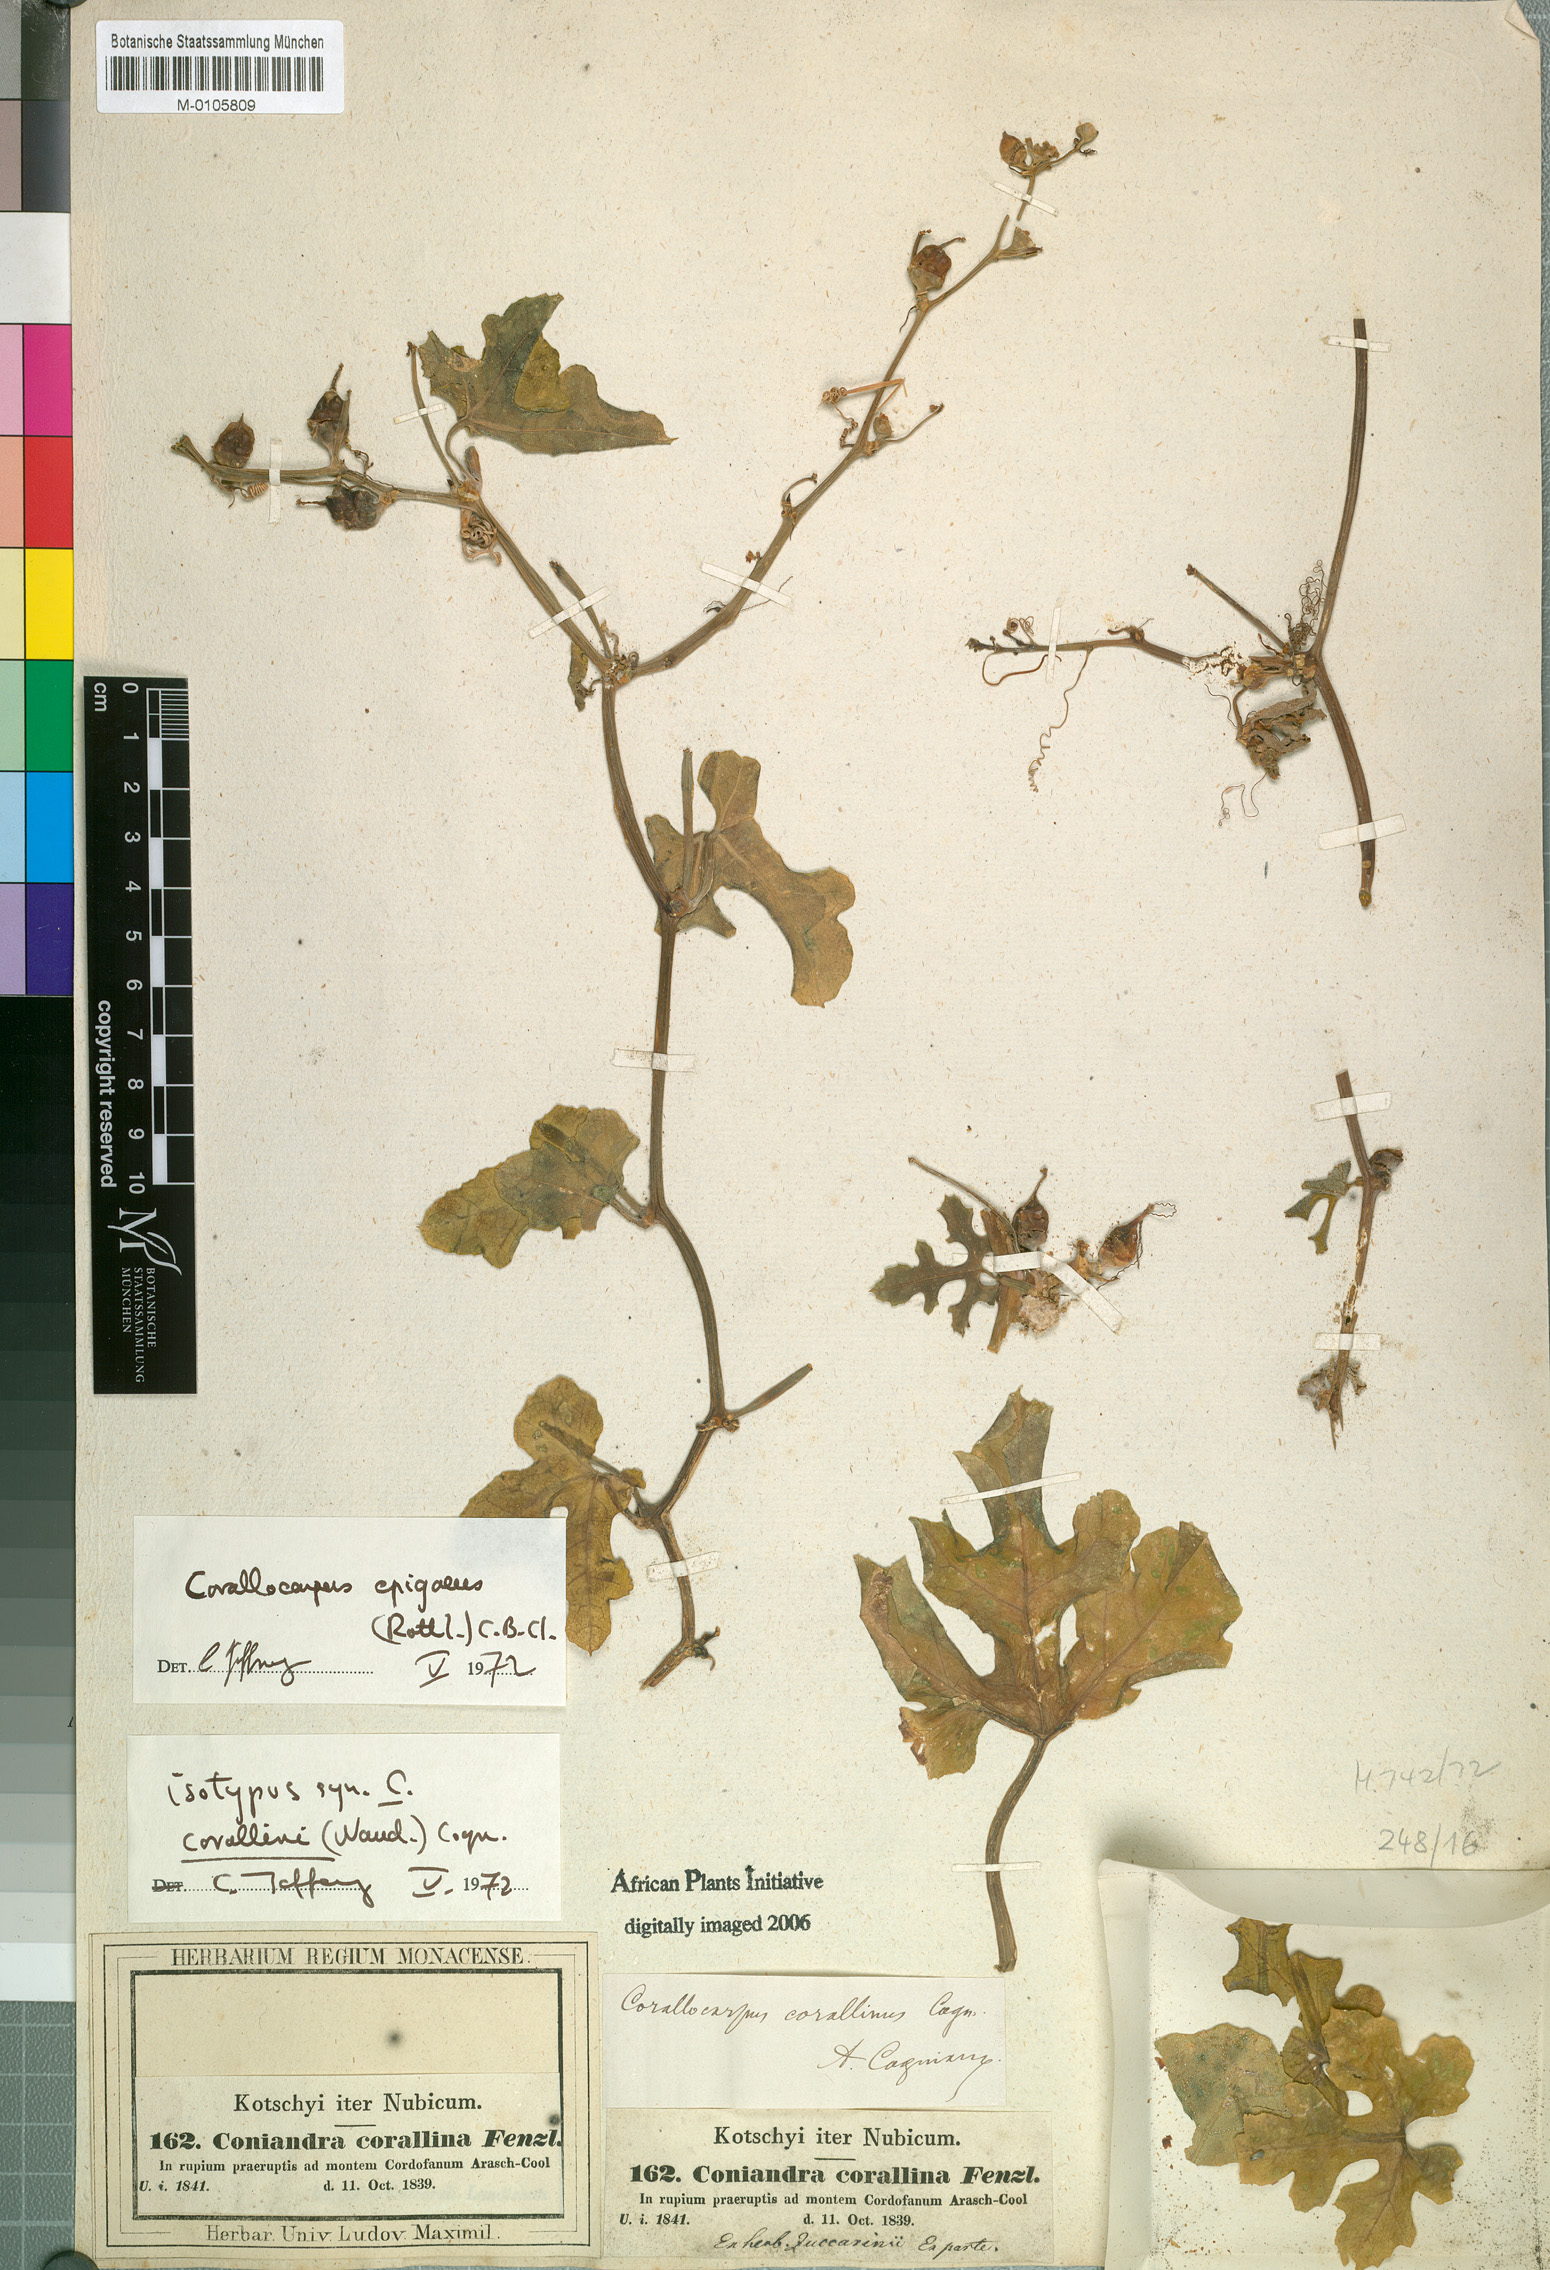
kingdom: Plantae
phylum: Tracheophyta
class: Magnoliopsida
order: Cucurbitales
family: Cucurbitaceae
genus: Corallocarpus
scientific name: Corallocarpus epigaeus
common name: Indian bryonia
